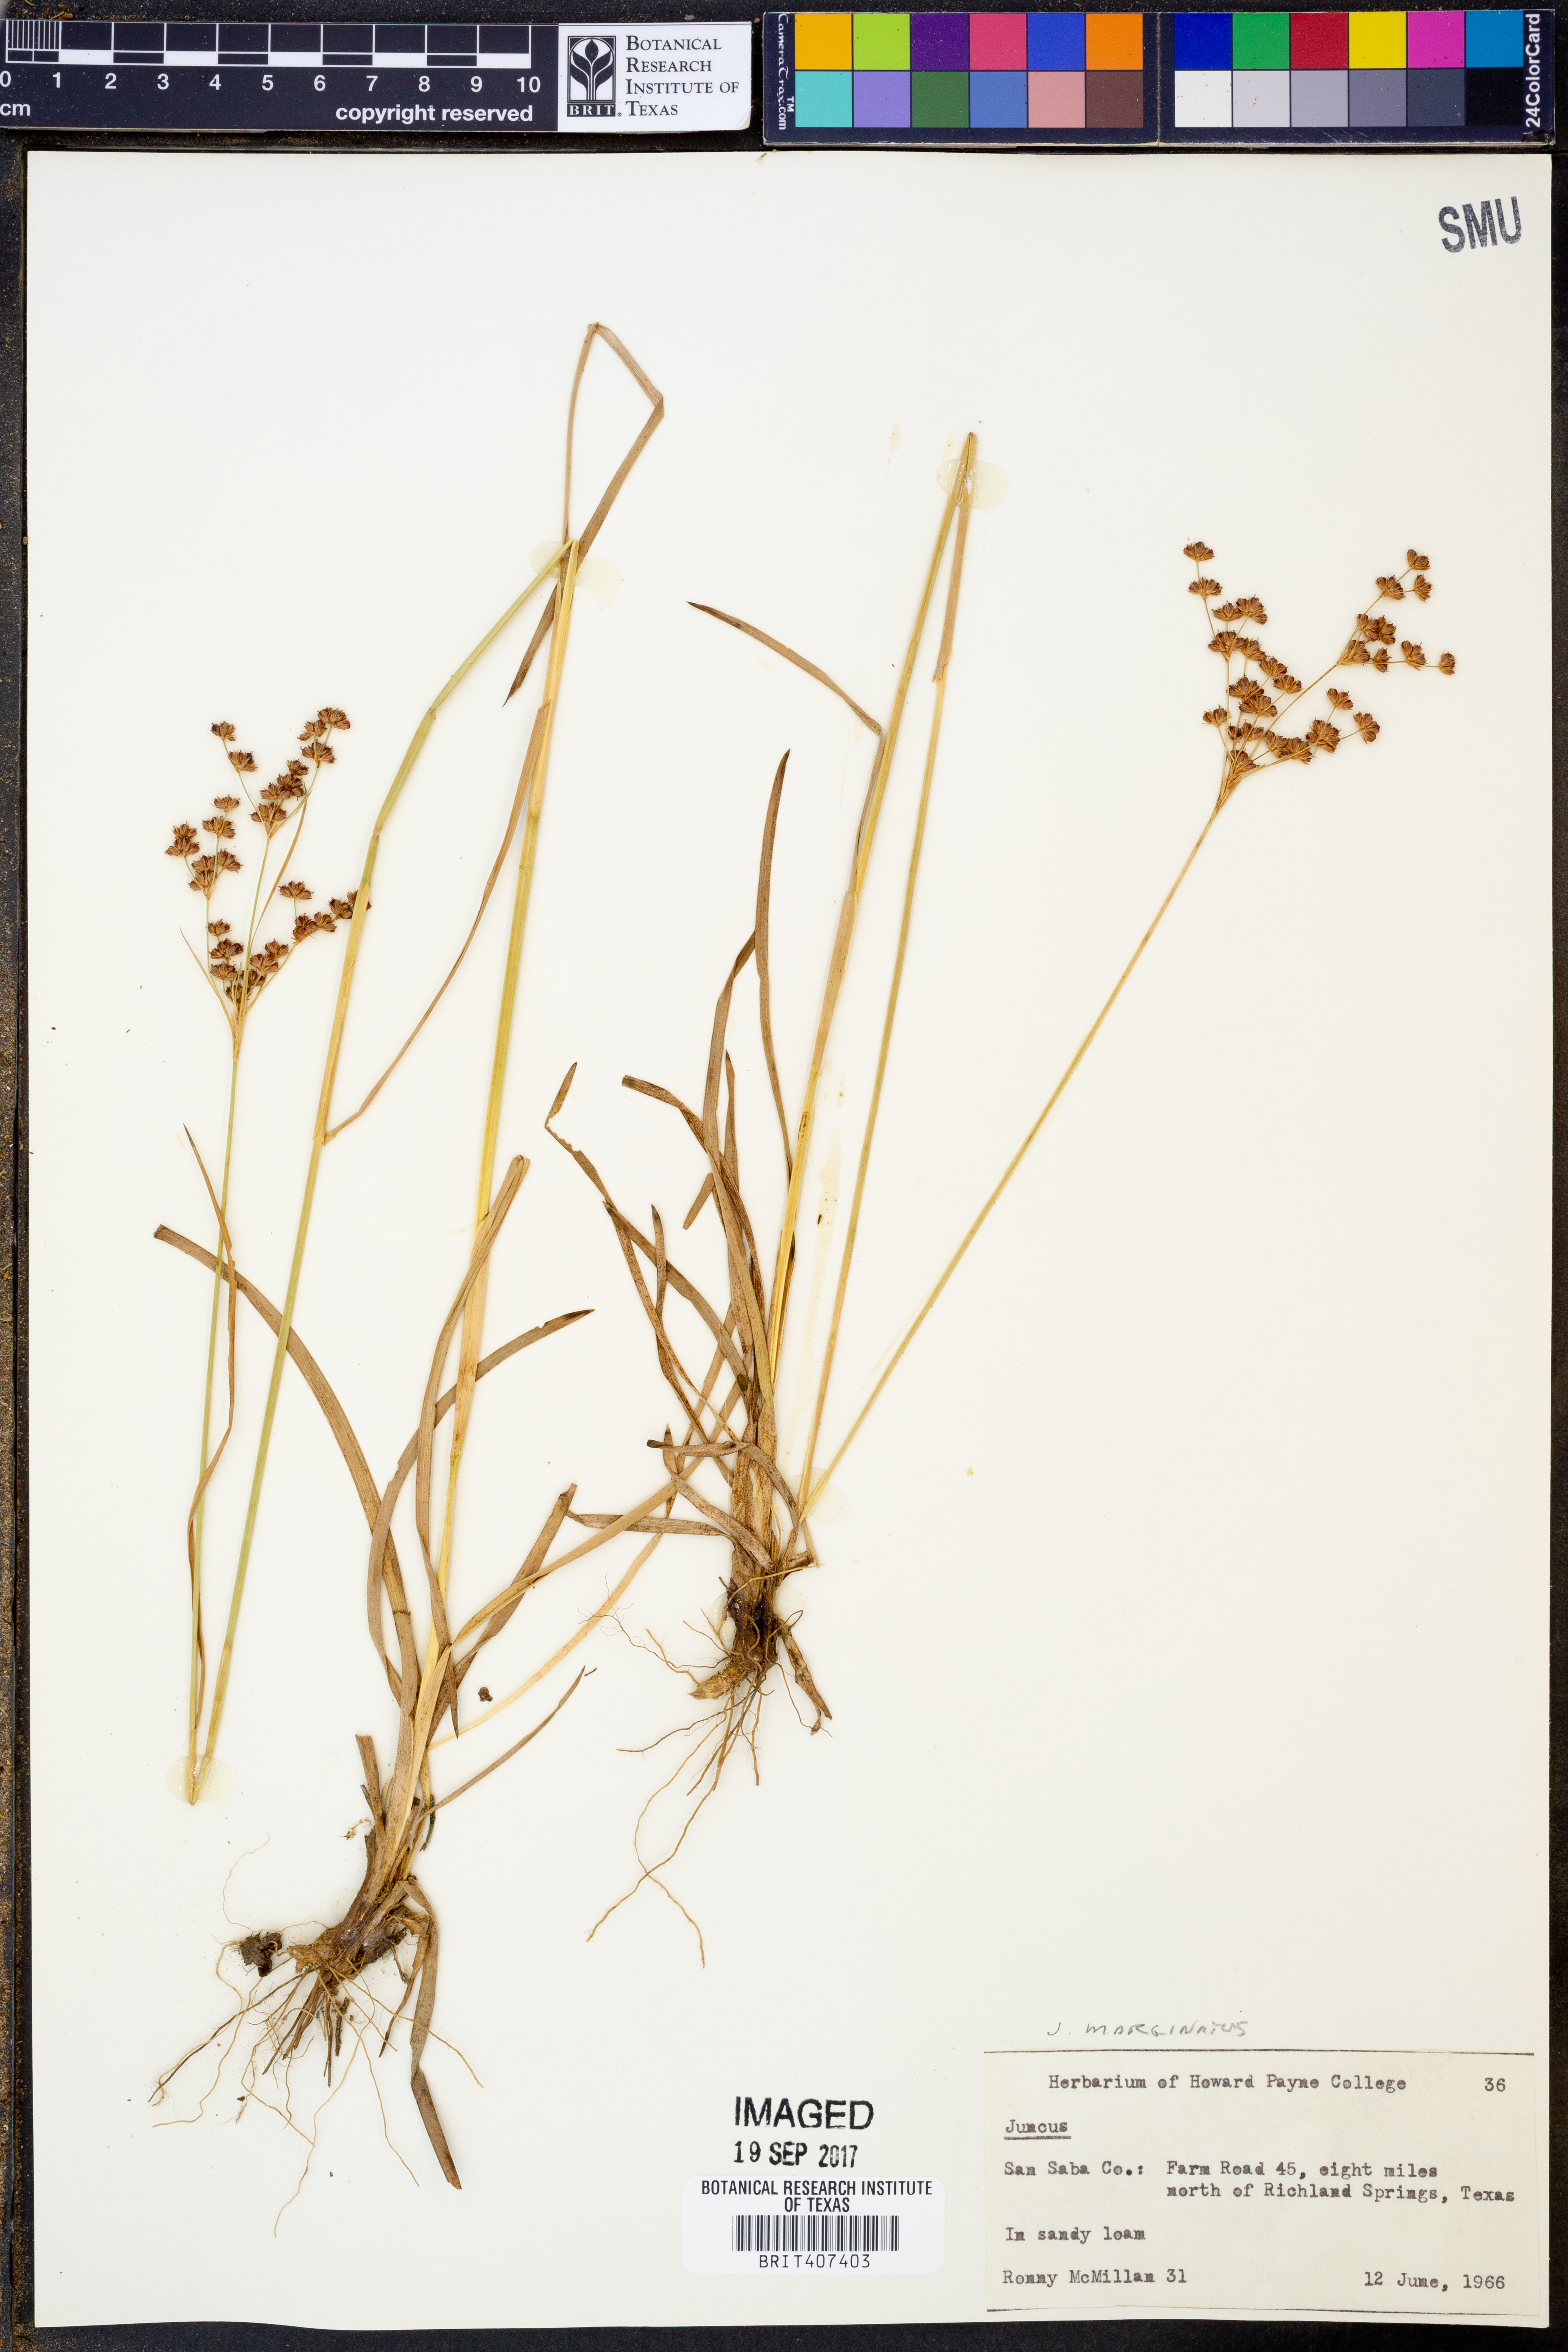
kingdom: Plantae
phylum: Tracheophyta
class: Liliopsida
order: Poales
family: Juncaceae
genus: Juncus
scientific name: Juncus marginatus
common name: Grass-leaf rush
